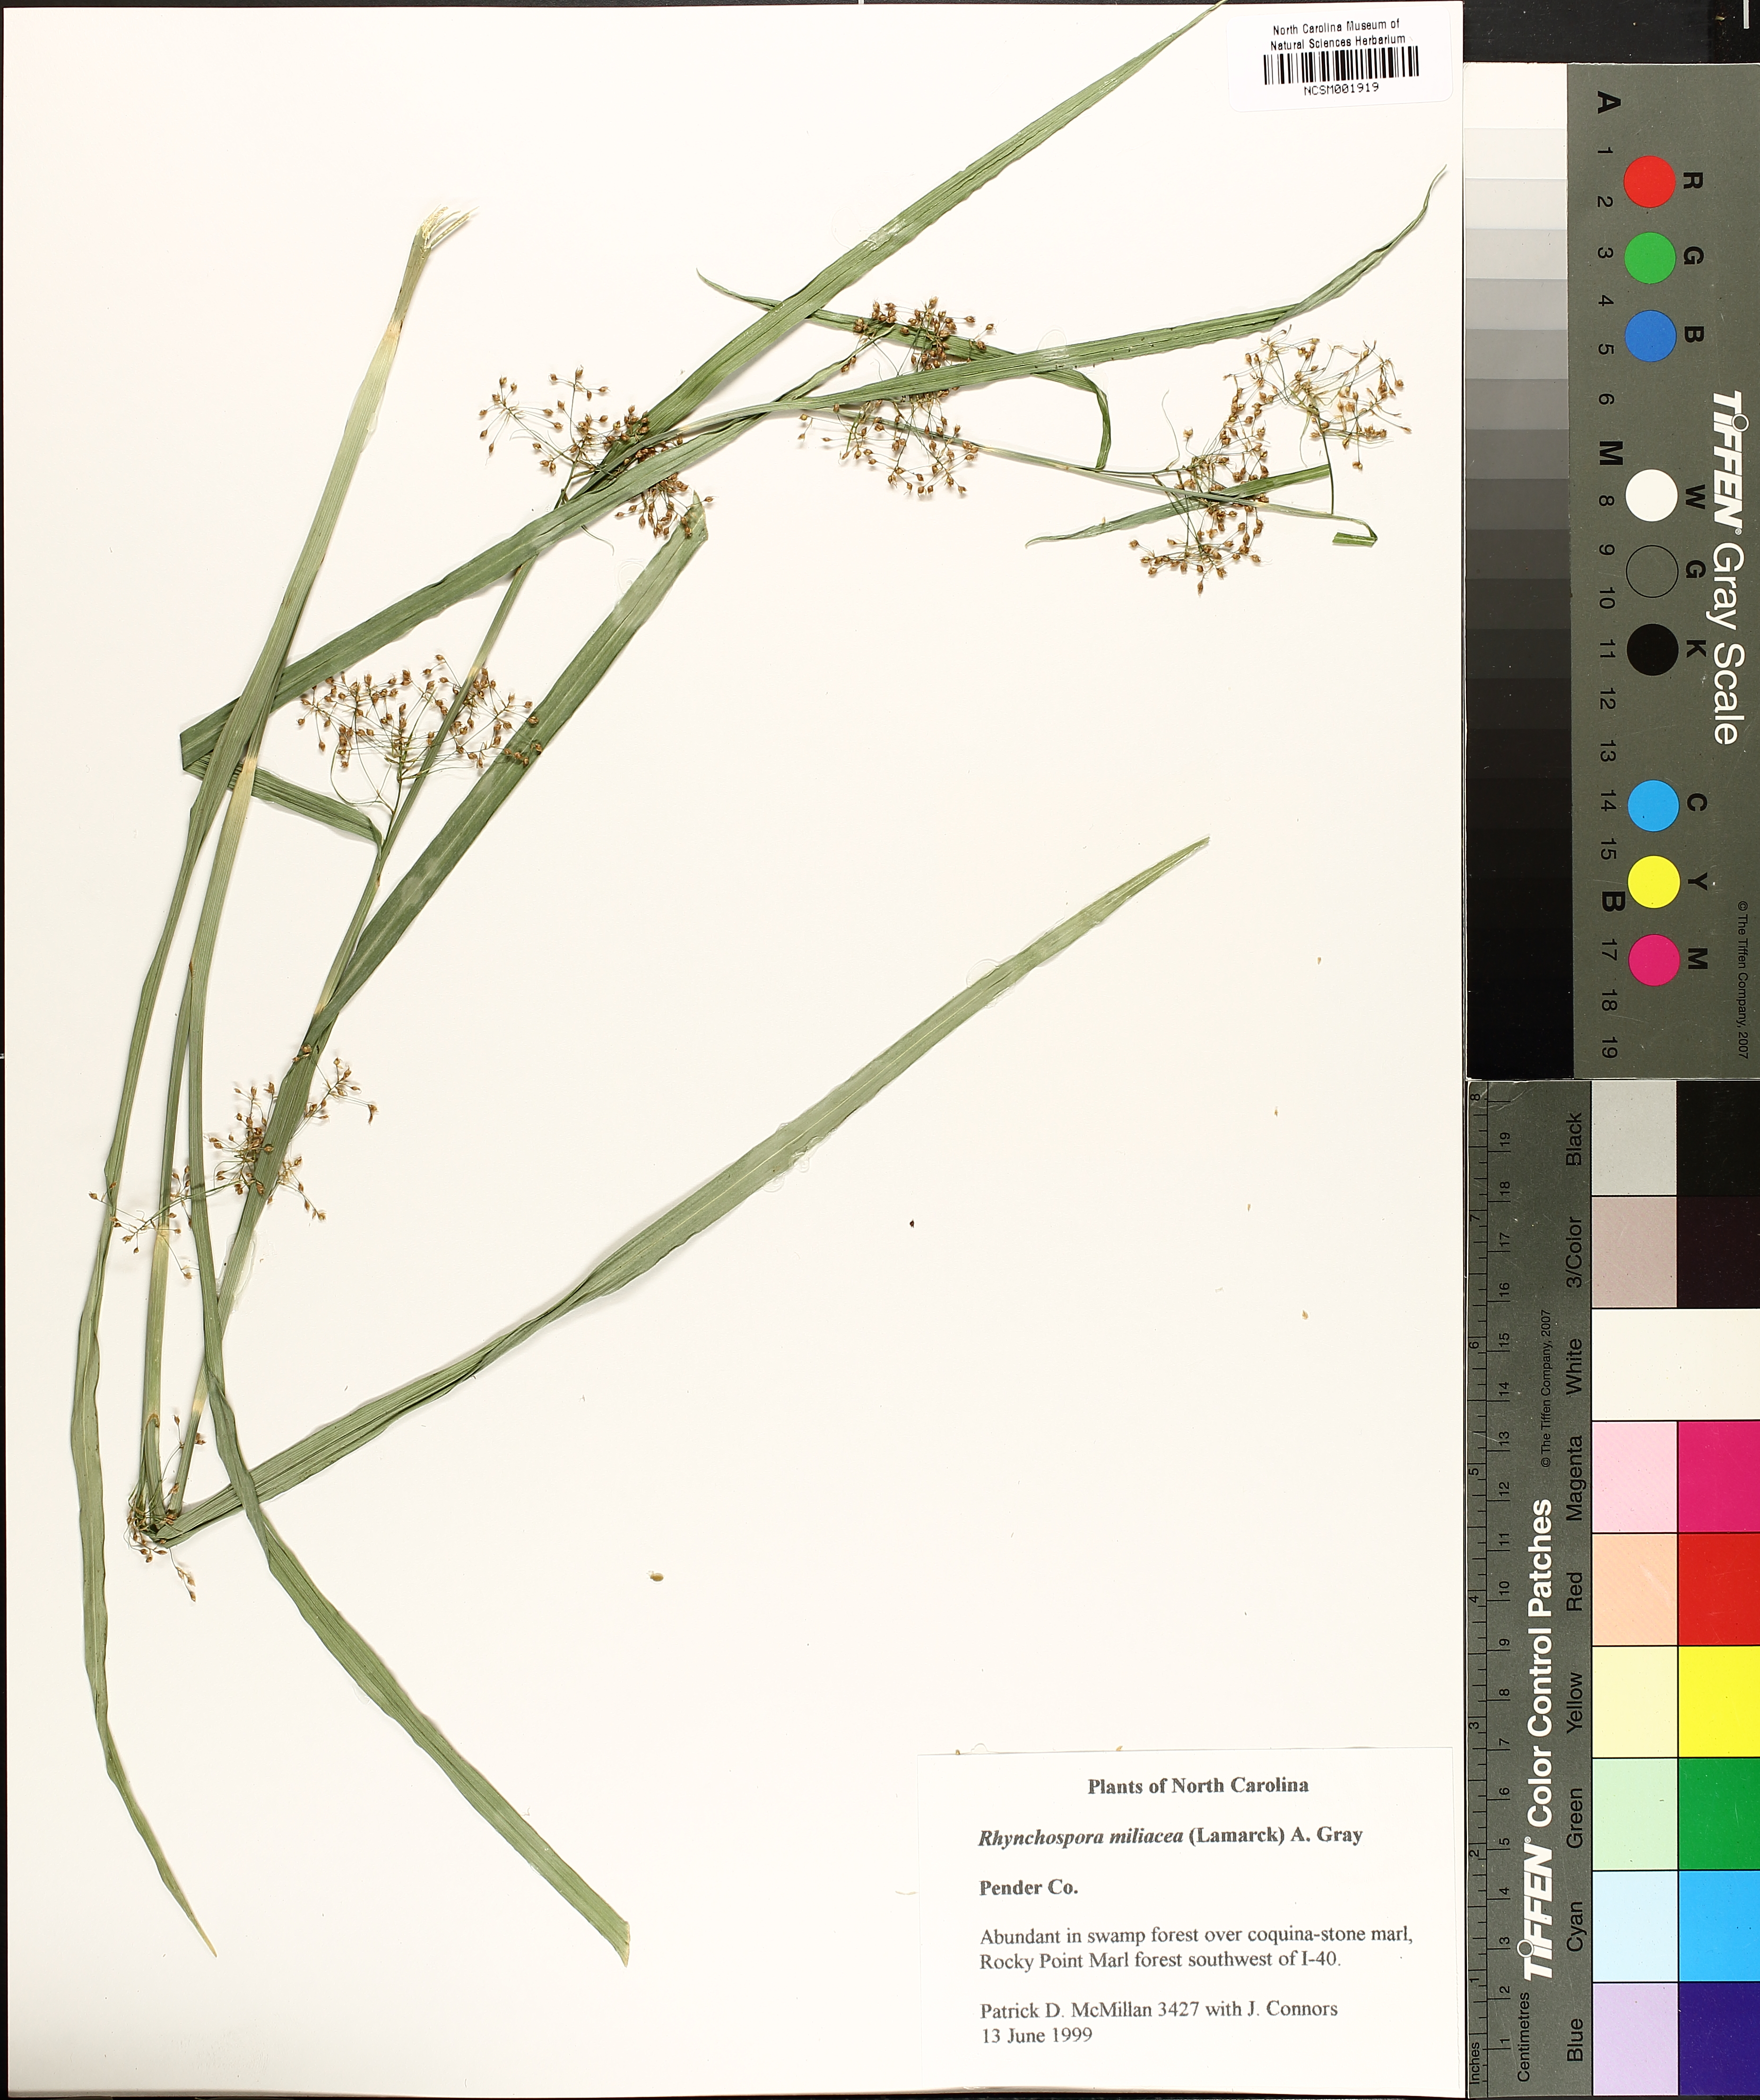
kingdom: Plantae
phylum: Tracheophyta
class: Liliopsida
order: Poales
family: Cyperaceae
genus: Rhynchospora
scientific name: Rhynchospora miliacea
